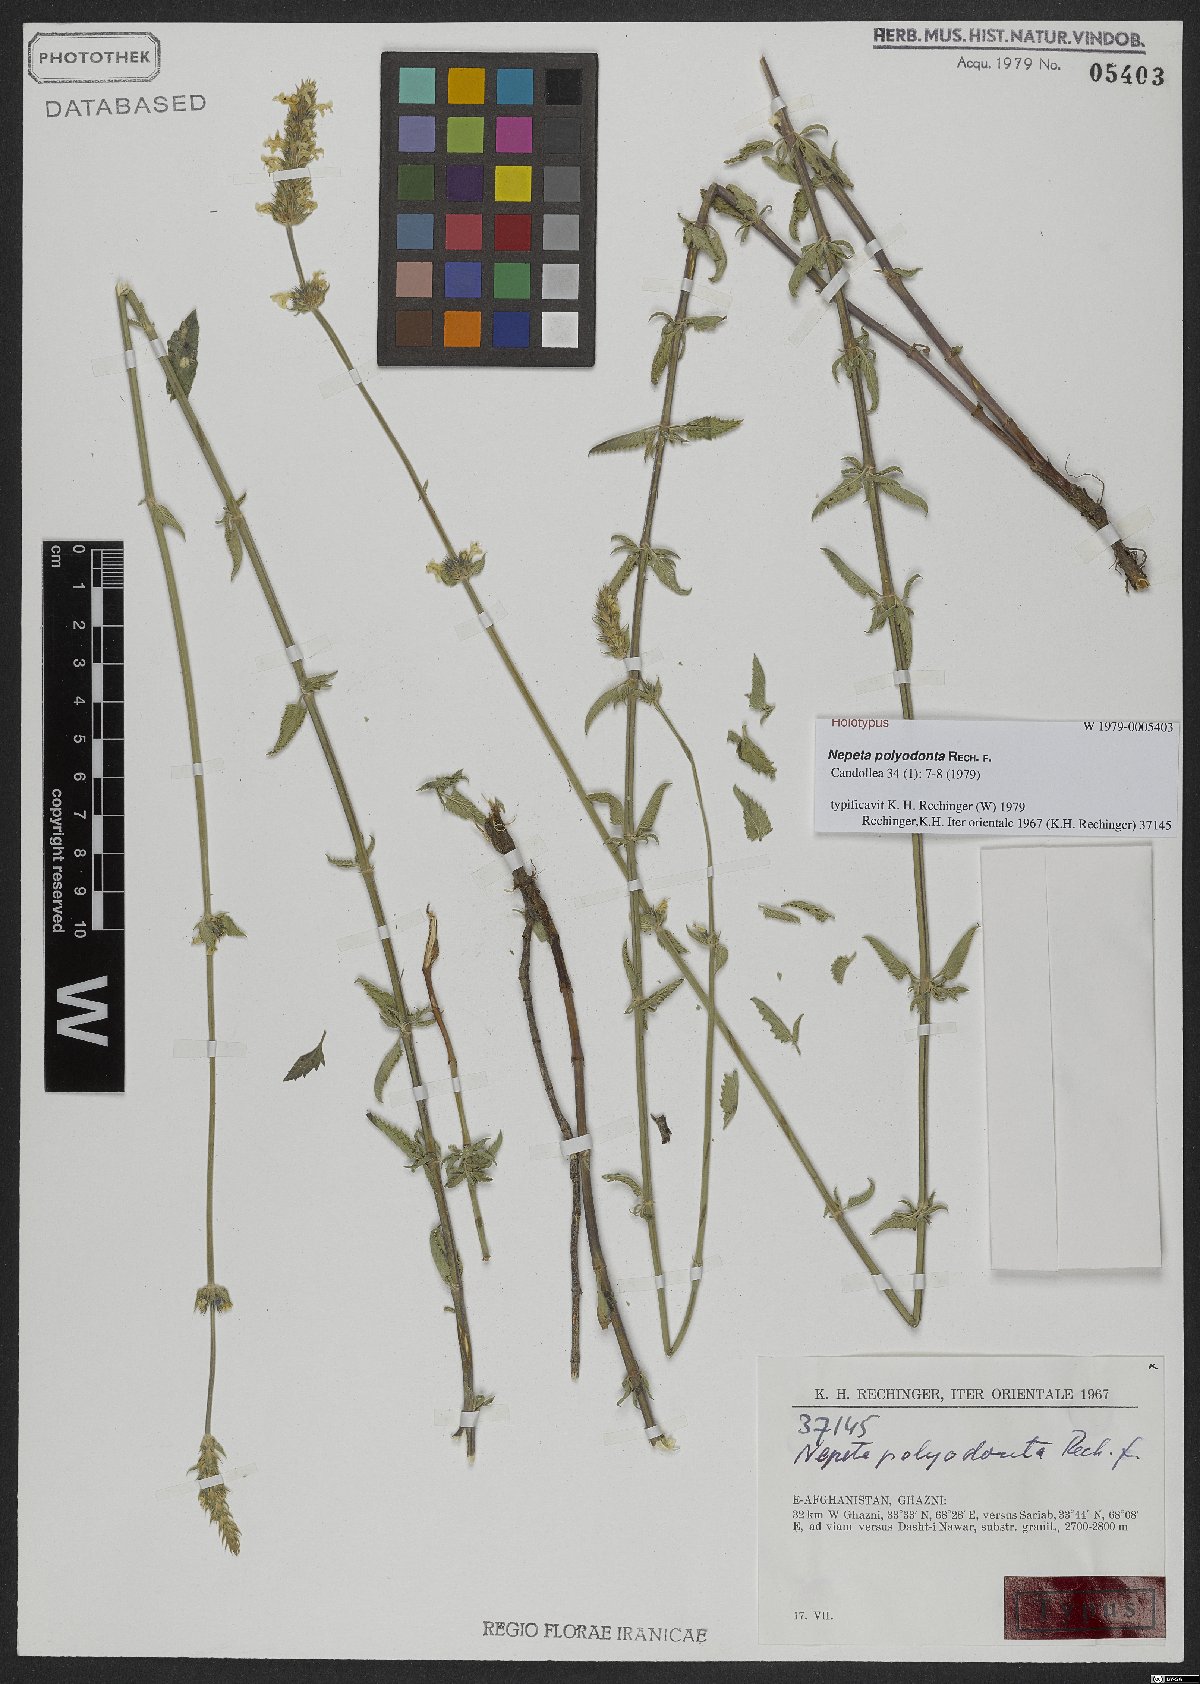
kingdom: Plantae
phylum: Tracheophyta
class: Magnoliopsida
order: Lamiales
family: Lamiaceae
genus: Nepeta
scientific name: Nepeta polyodonta
